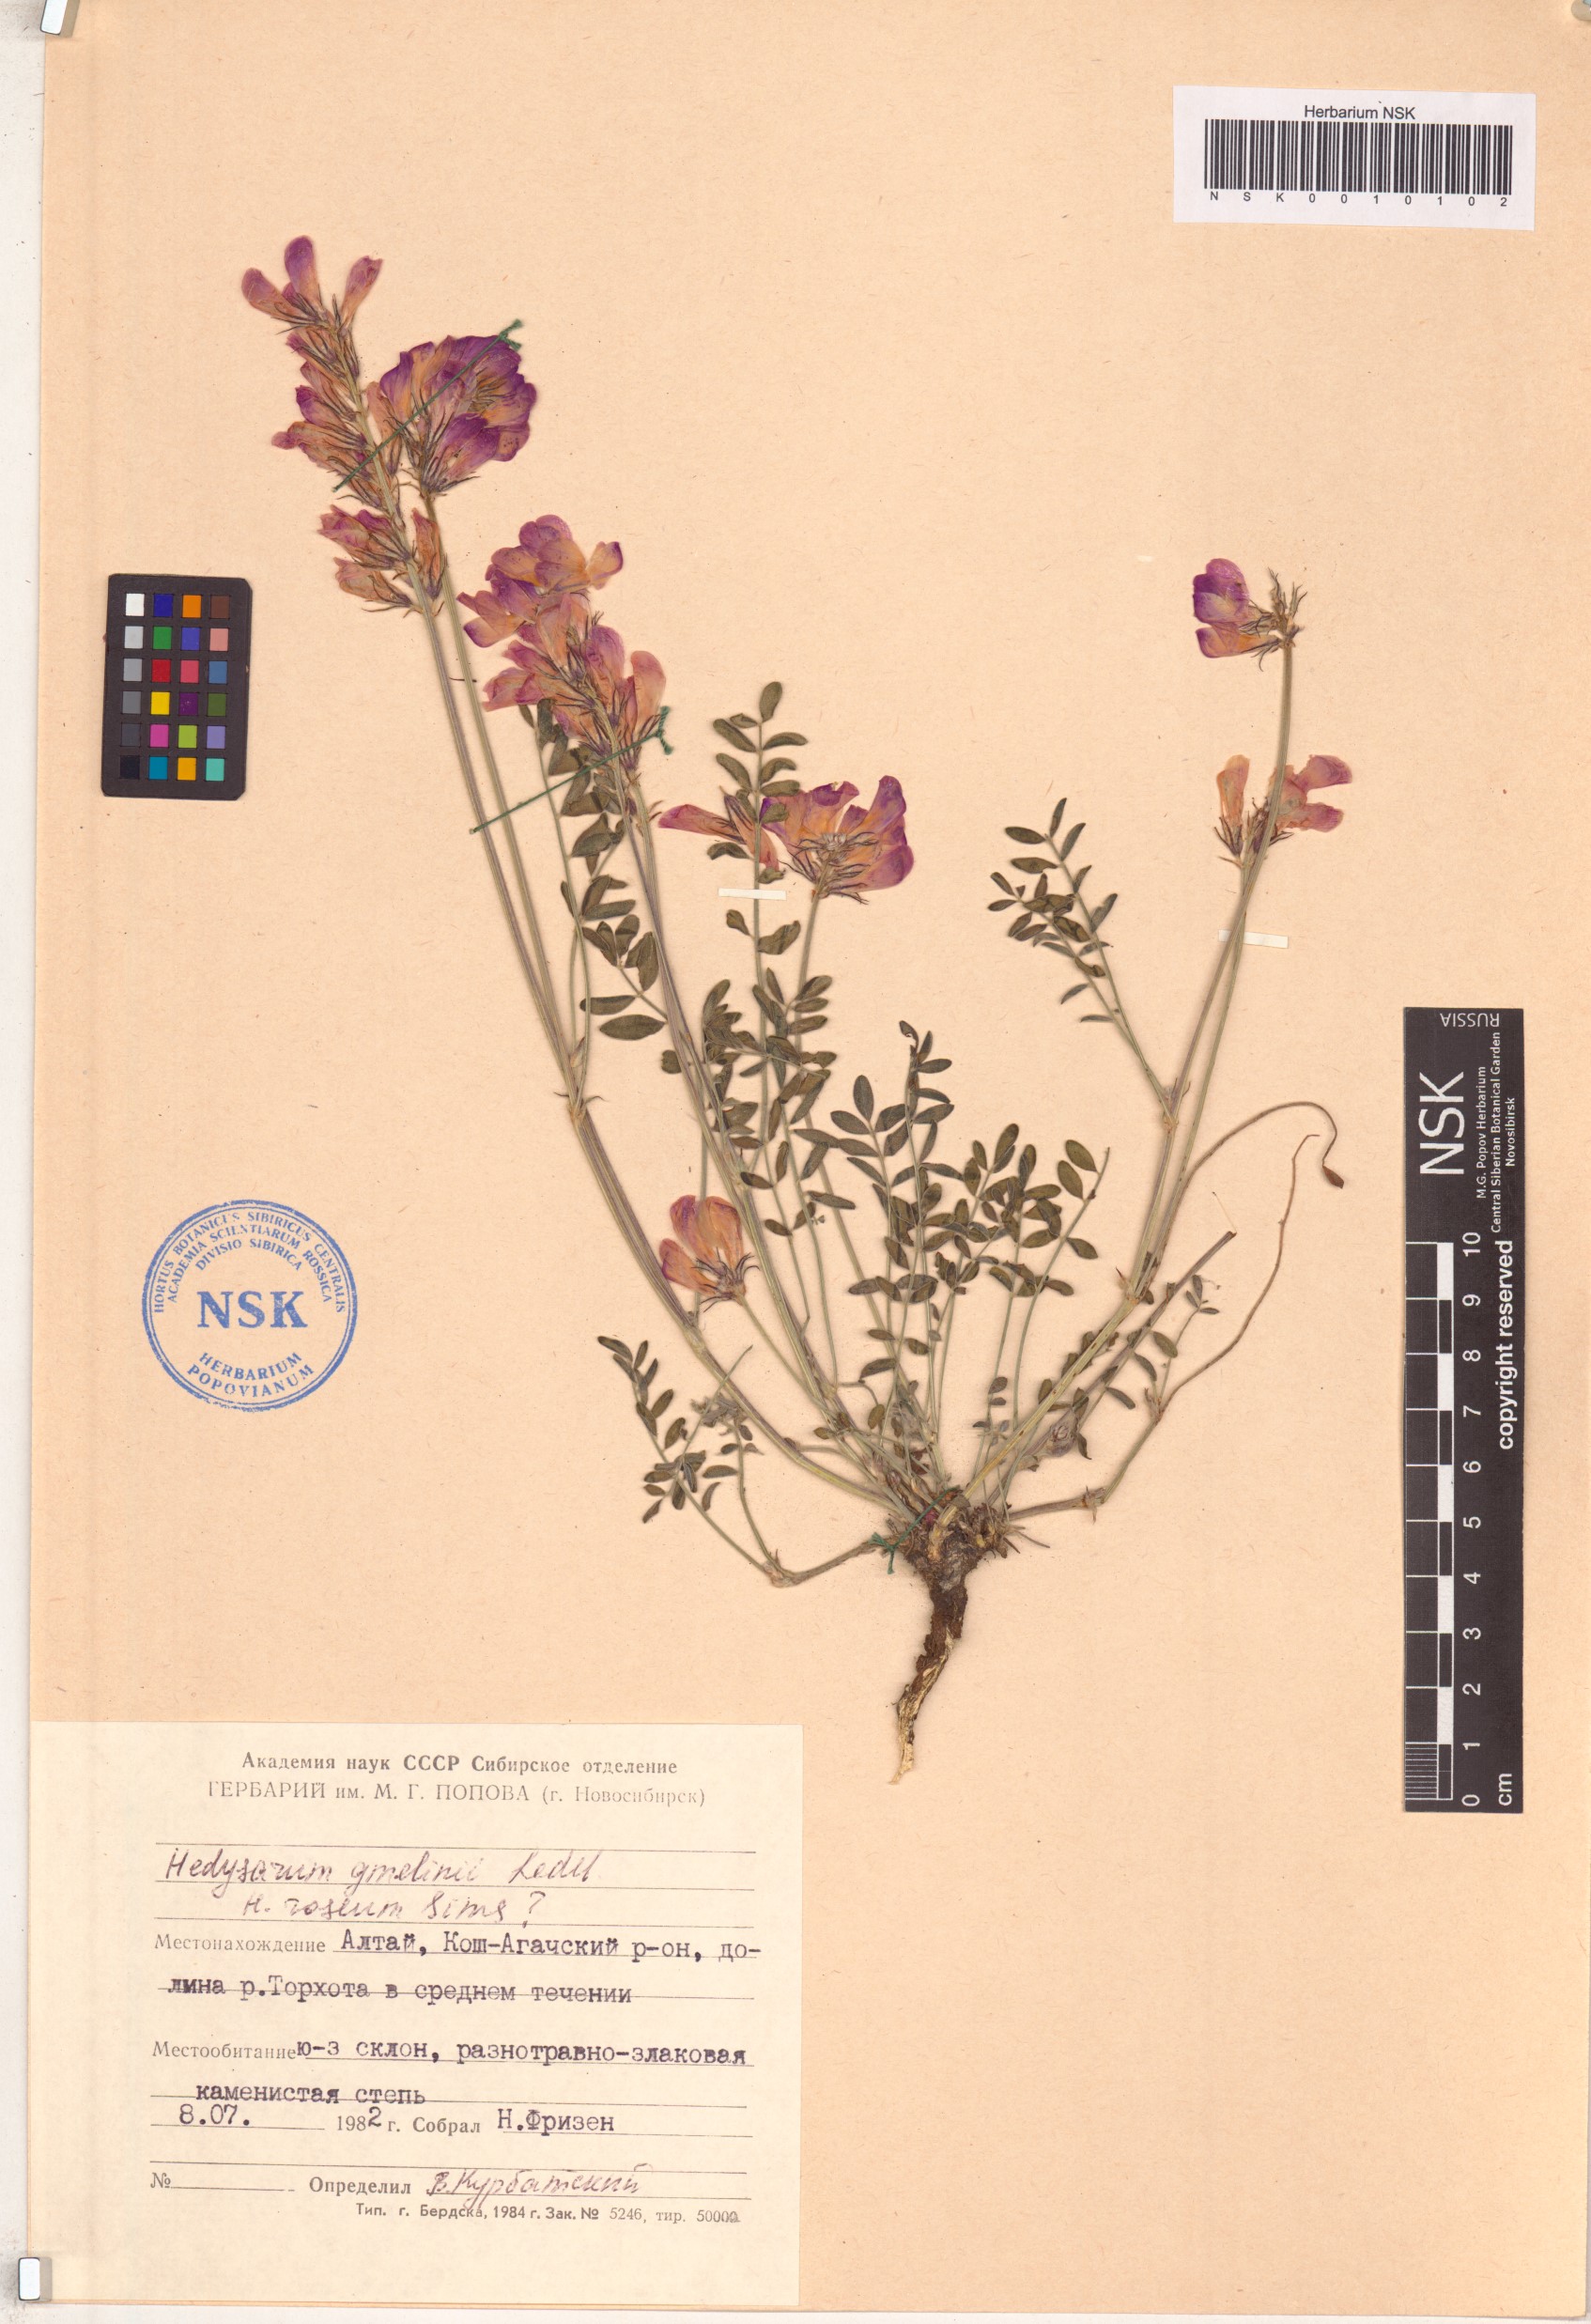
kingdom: Plantae
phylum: Tracheophyta
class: Magnoliopsida
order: Fabales
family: Fabaceae
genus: Hedysarum
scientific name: Hedysarum gmelinii
